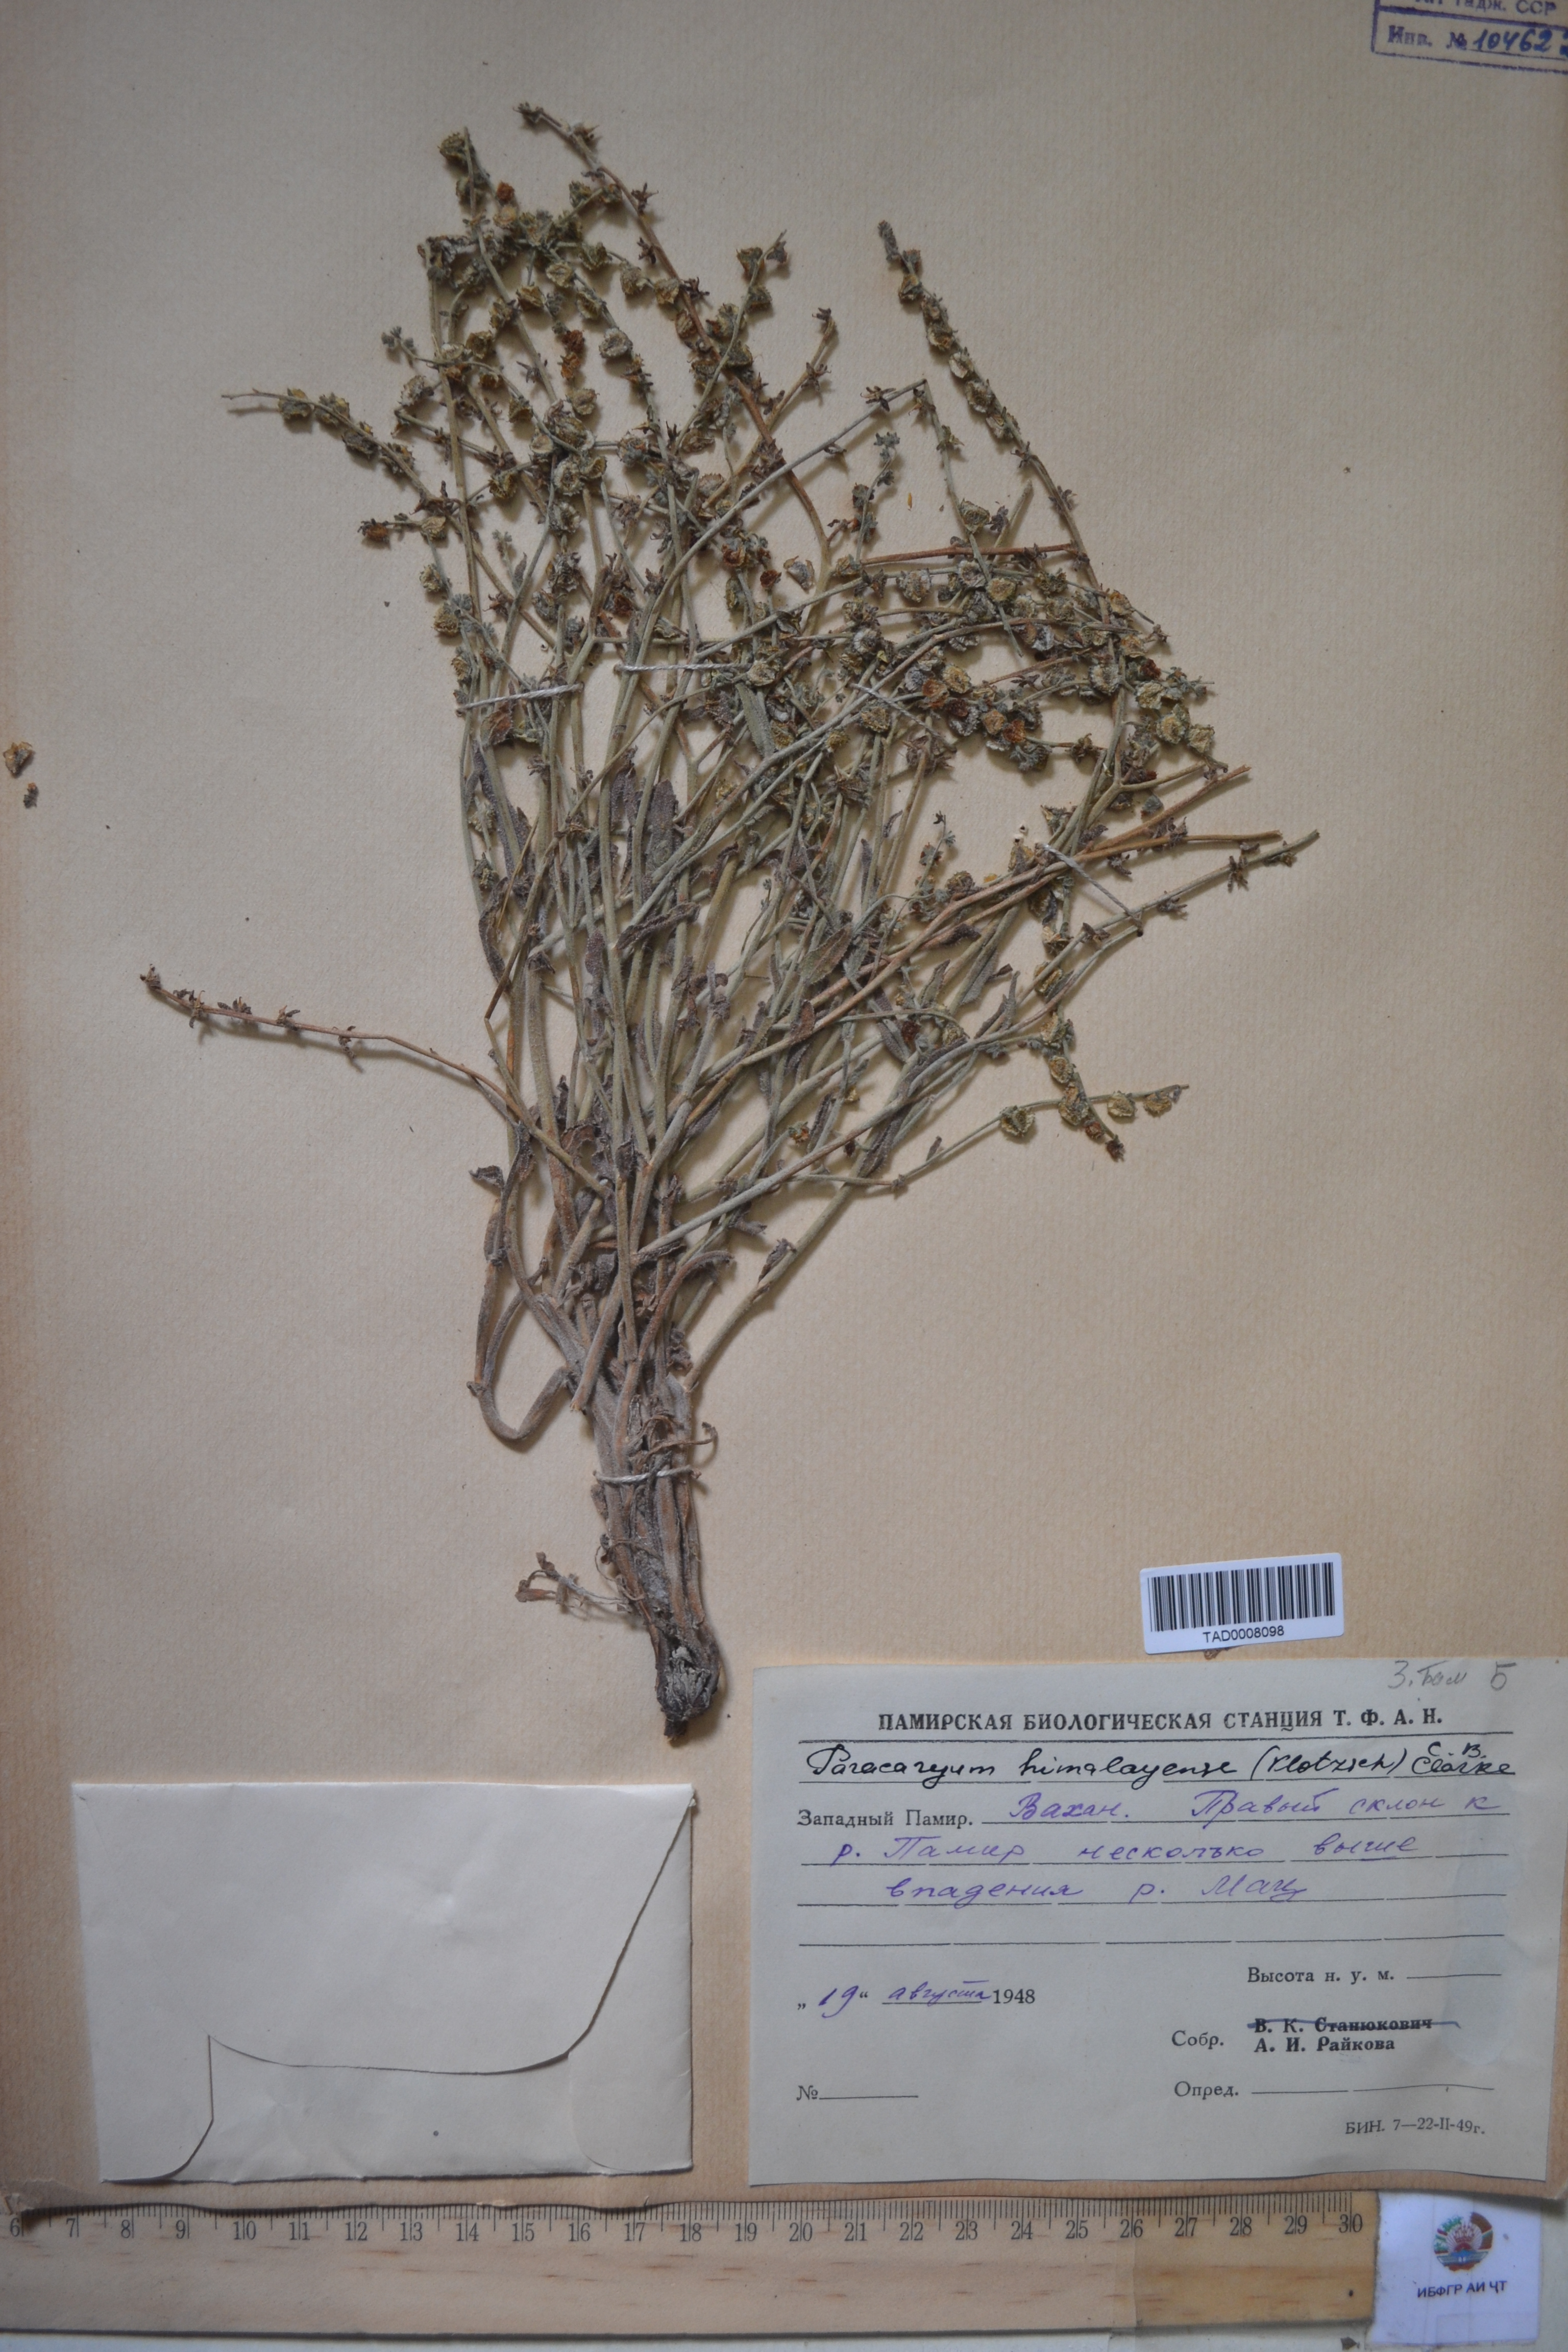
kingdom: Plantae
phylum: Tracheophyta
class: Magnoliopsida
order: Boraginales
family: Boraginaceae
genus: Paracaryum
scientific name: Paracaryum himalayense
